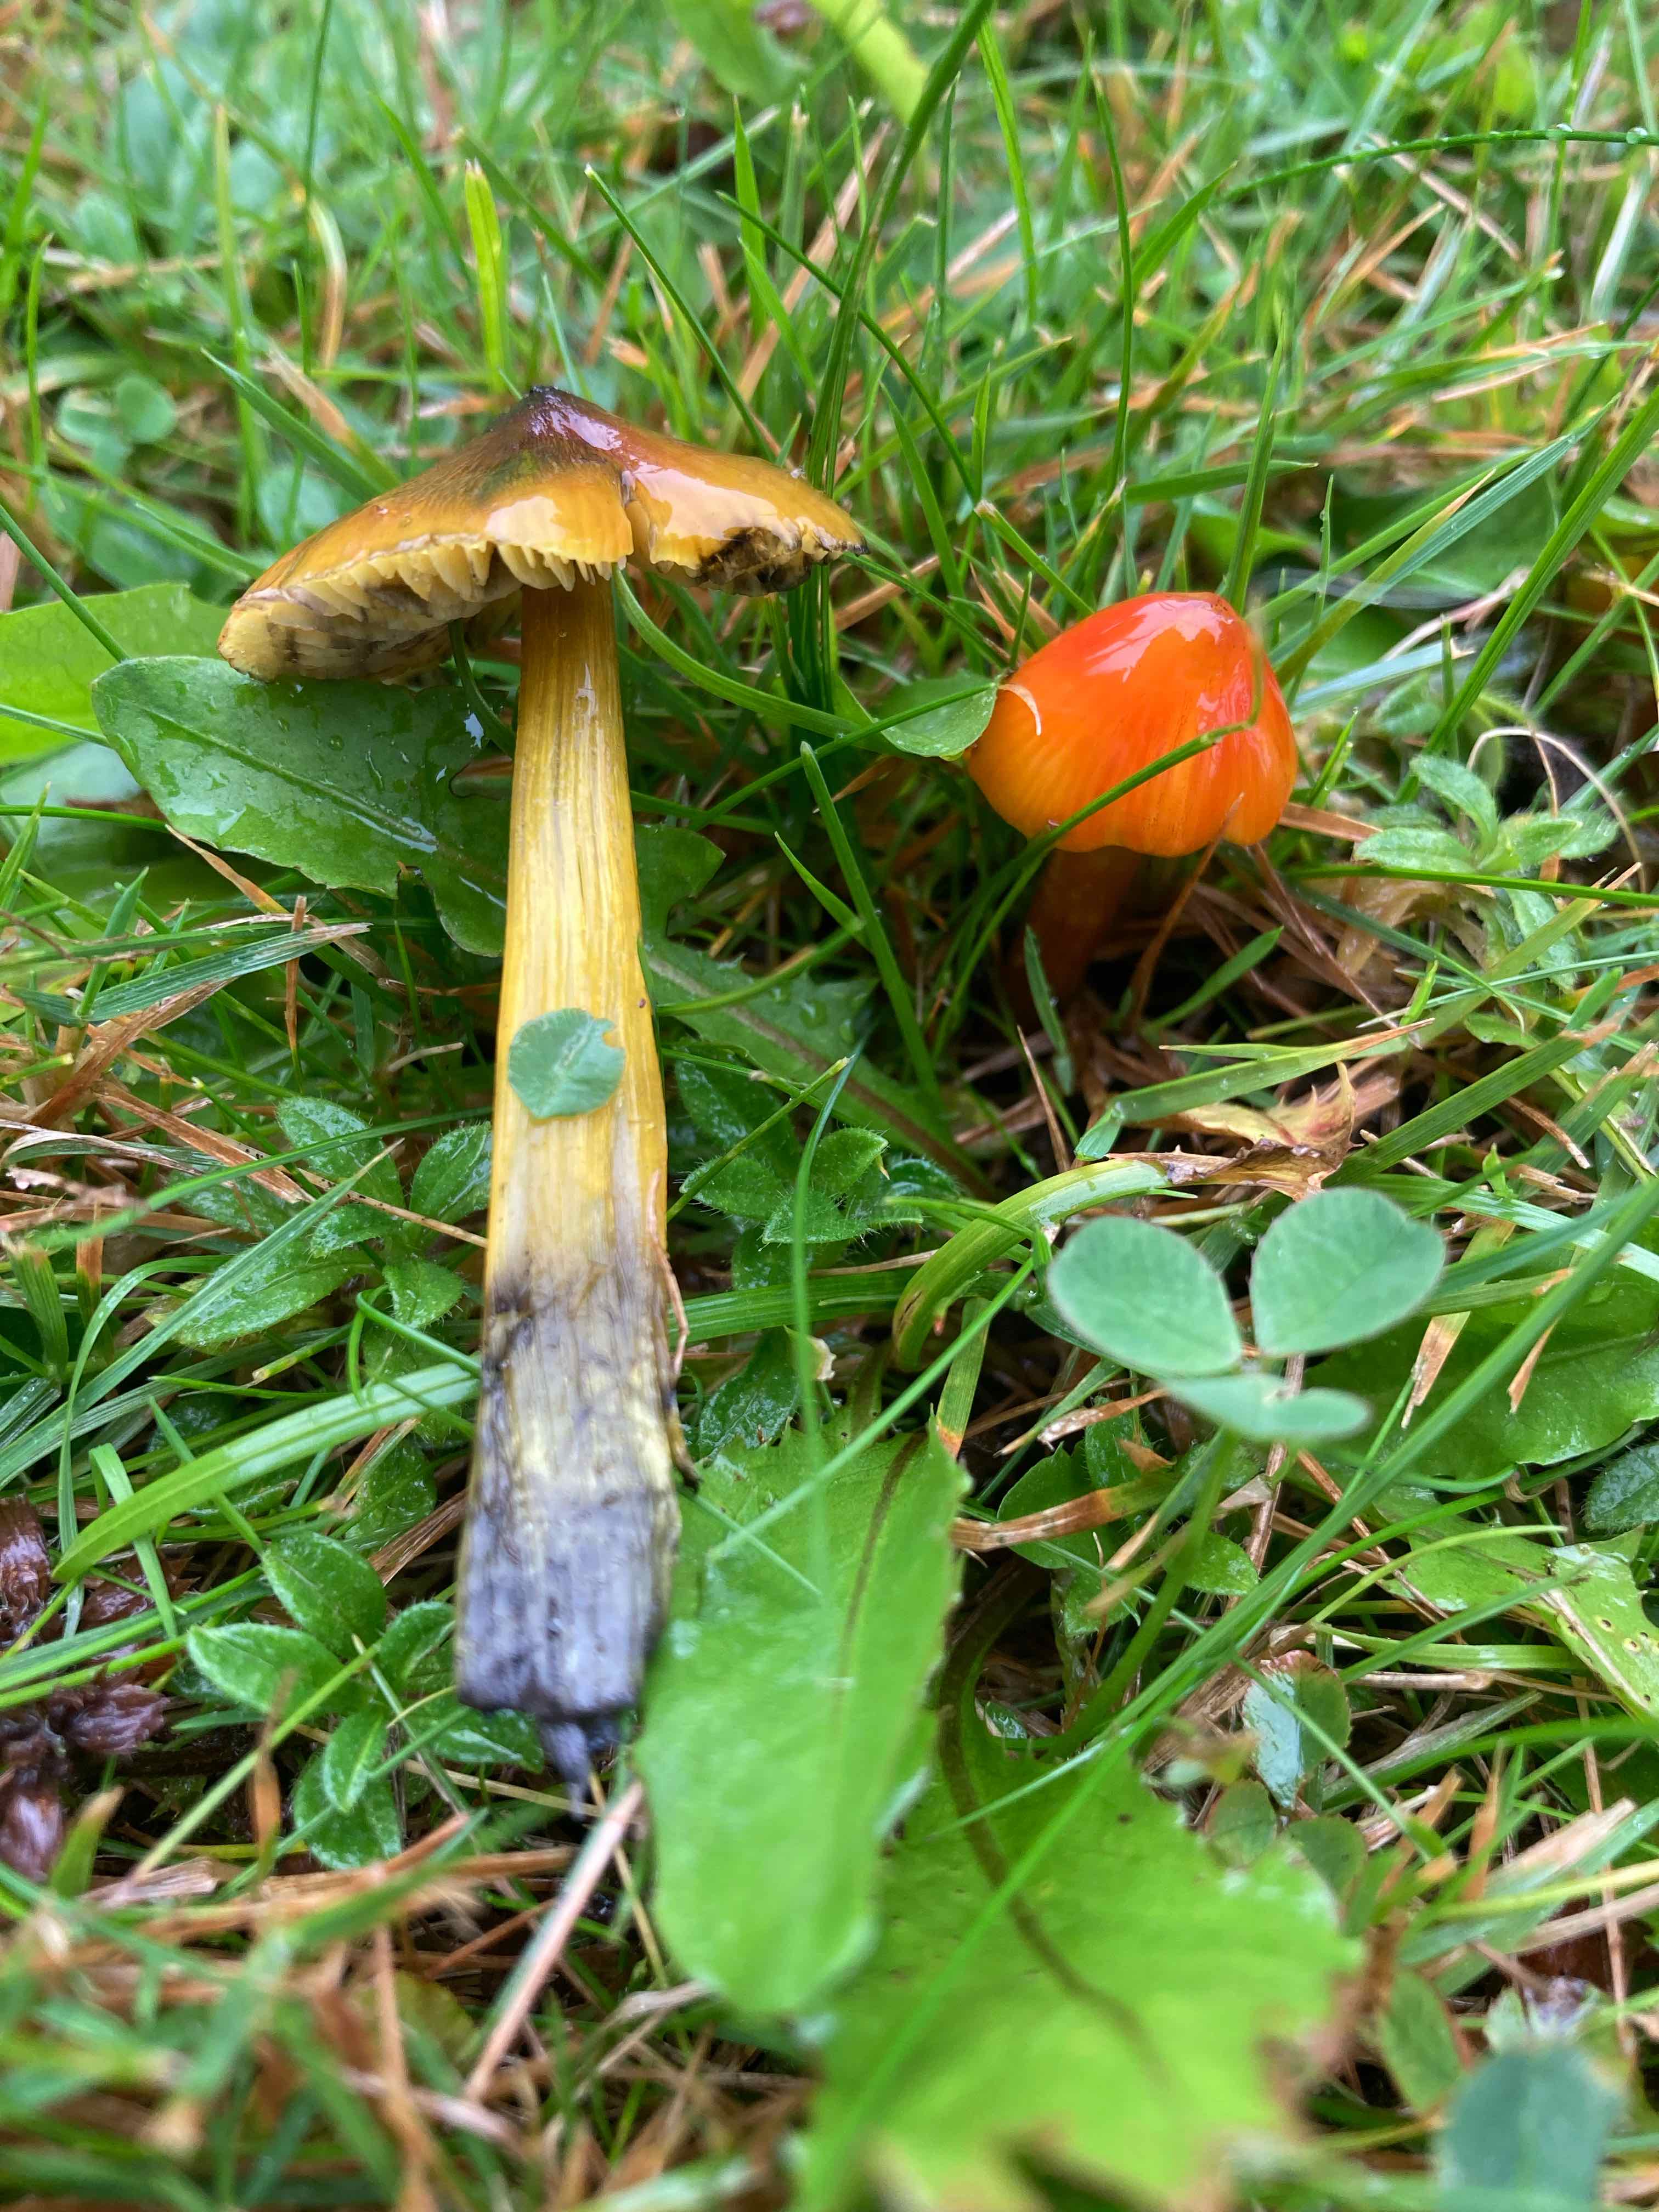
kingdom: Fungi
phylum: Basidiomycota
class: Agaricomycetes
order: Agaricales
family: Hygrophoraceae
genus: Hygrocybe
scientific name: Hygrocybe conica
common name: kegle-vokshat
